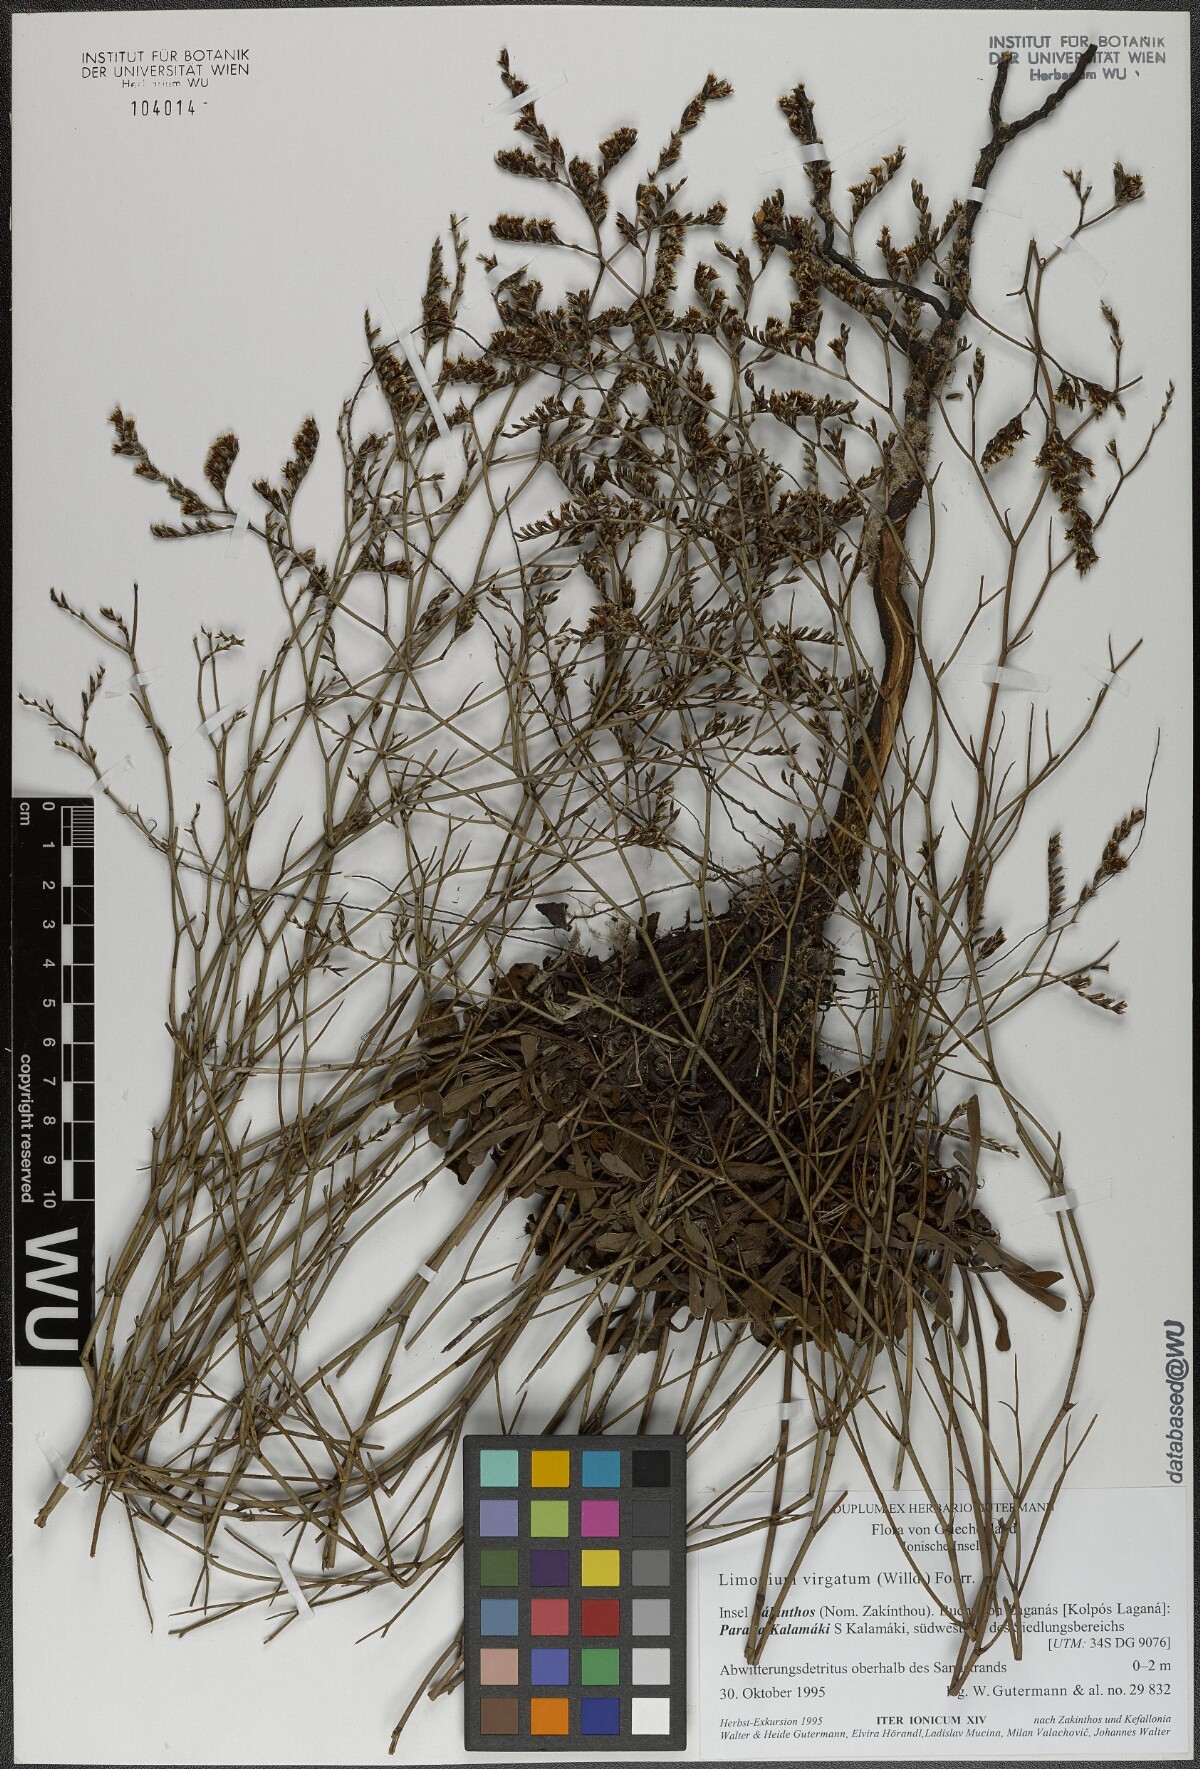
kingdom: Plantae
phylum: Tracheophyta
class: Magnoliopsida
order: Caryophyllales
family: Plumbaginaceae
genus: Limonium
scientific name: Limonium virgatum
